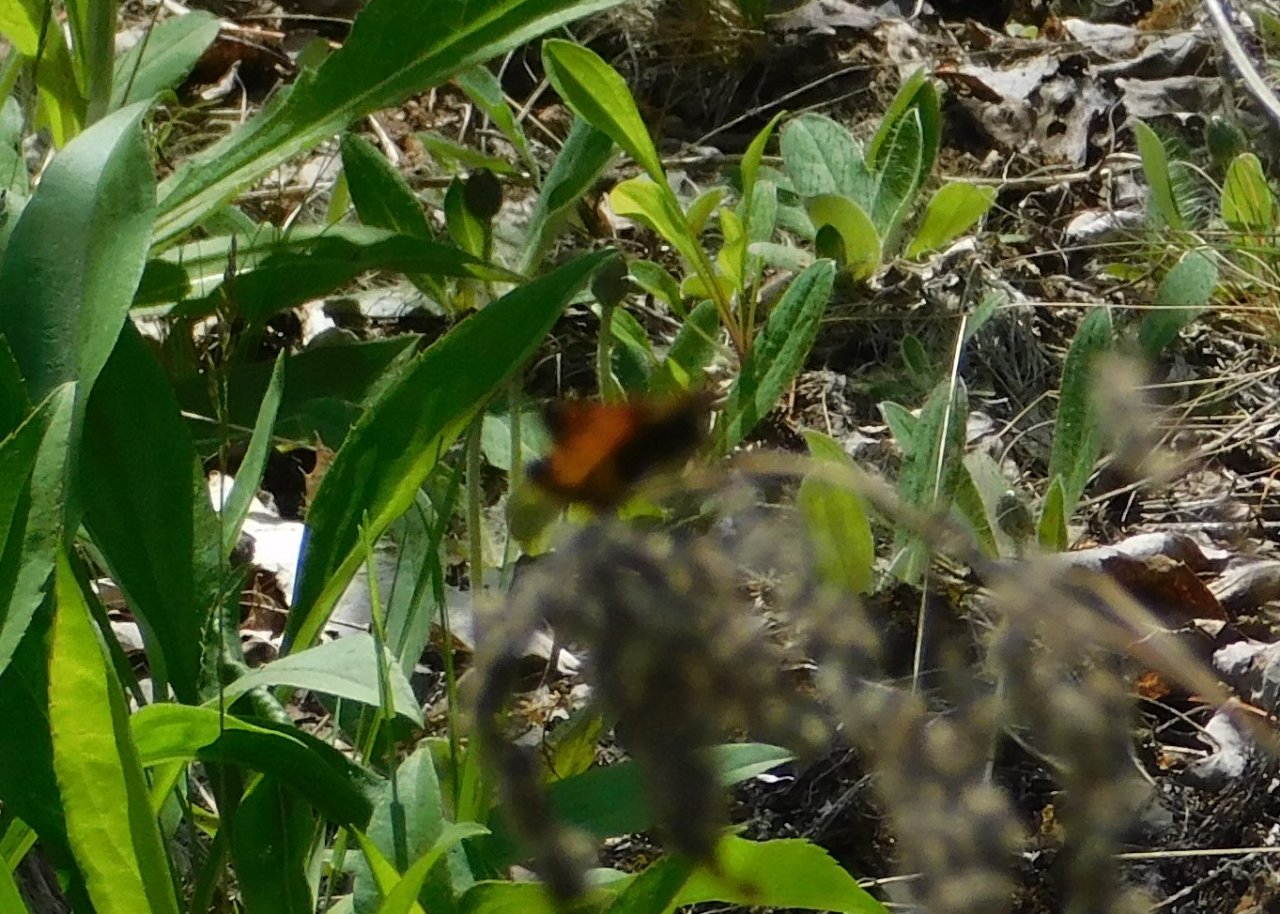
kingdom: Animalia
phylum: Arthropoda
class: Insecta
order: Lepidoptera
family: Hesperiidae
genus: Lon
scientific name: Lon hobomok
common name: Hobomok Skipper
